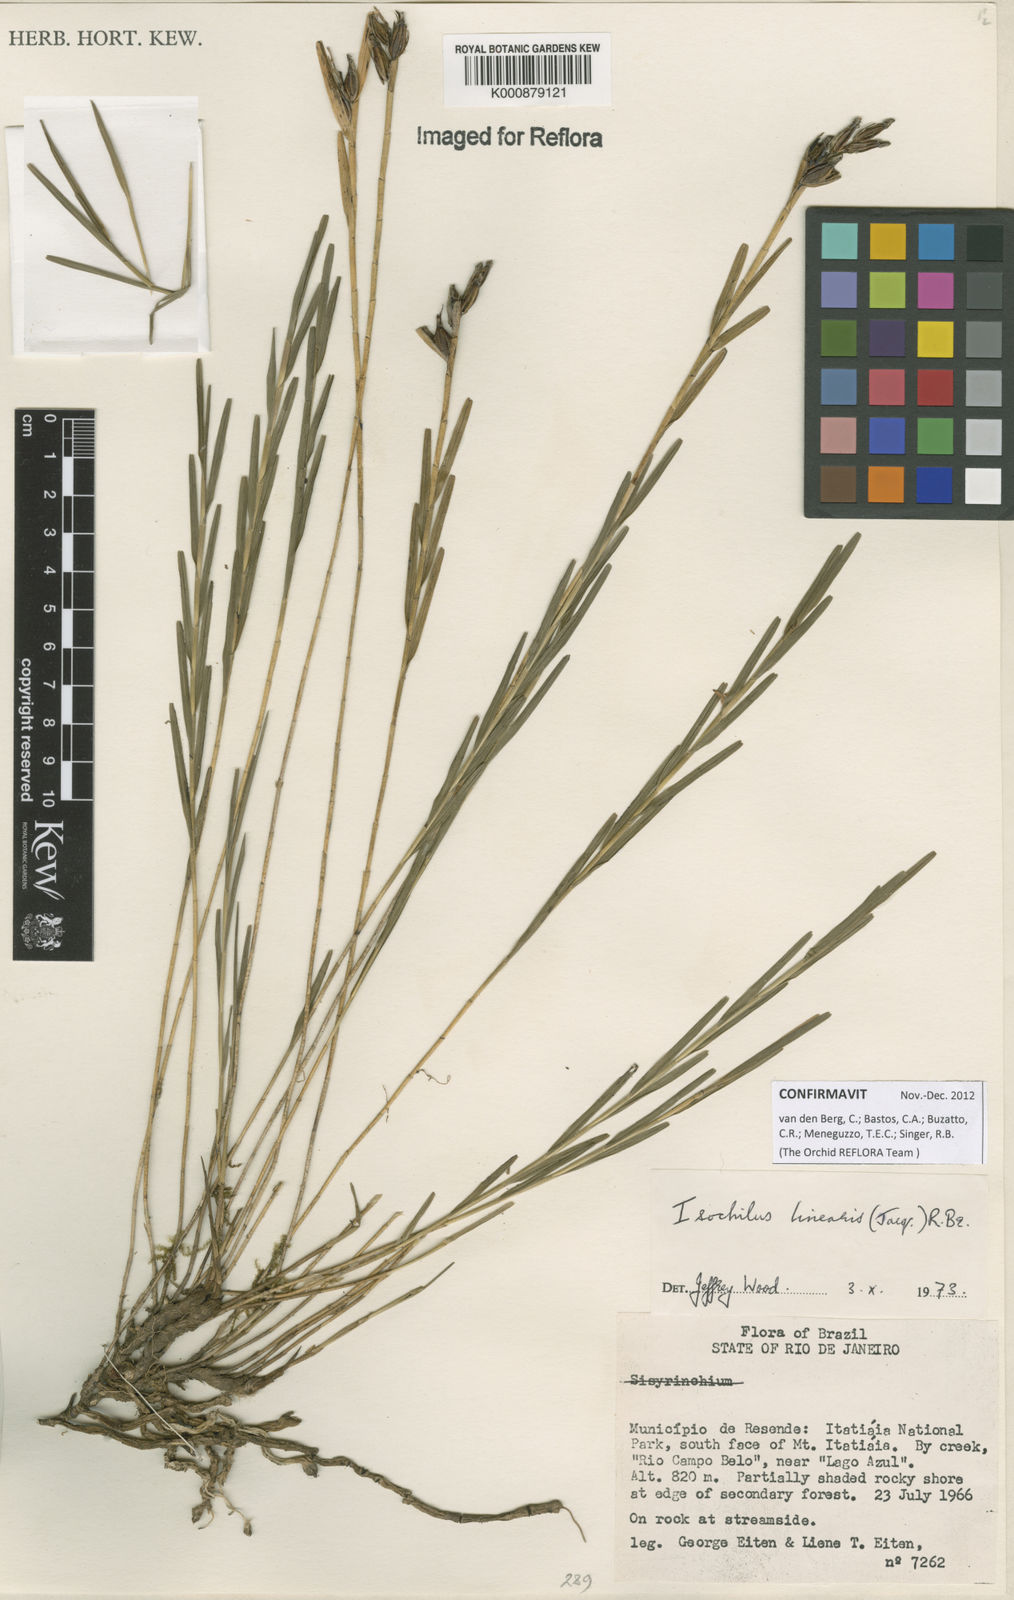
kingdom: Plantae
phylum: Tracheophyta
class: Liliopsida
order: Asparagales
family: Orchidaceae
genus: Isochilus
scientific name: Isochilus
